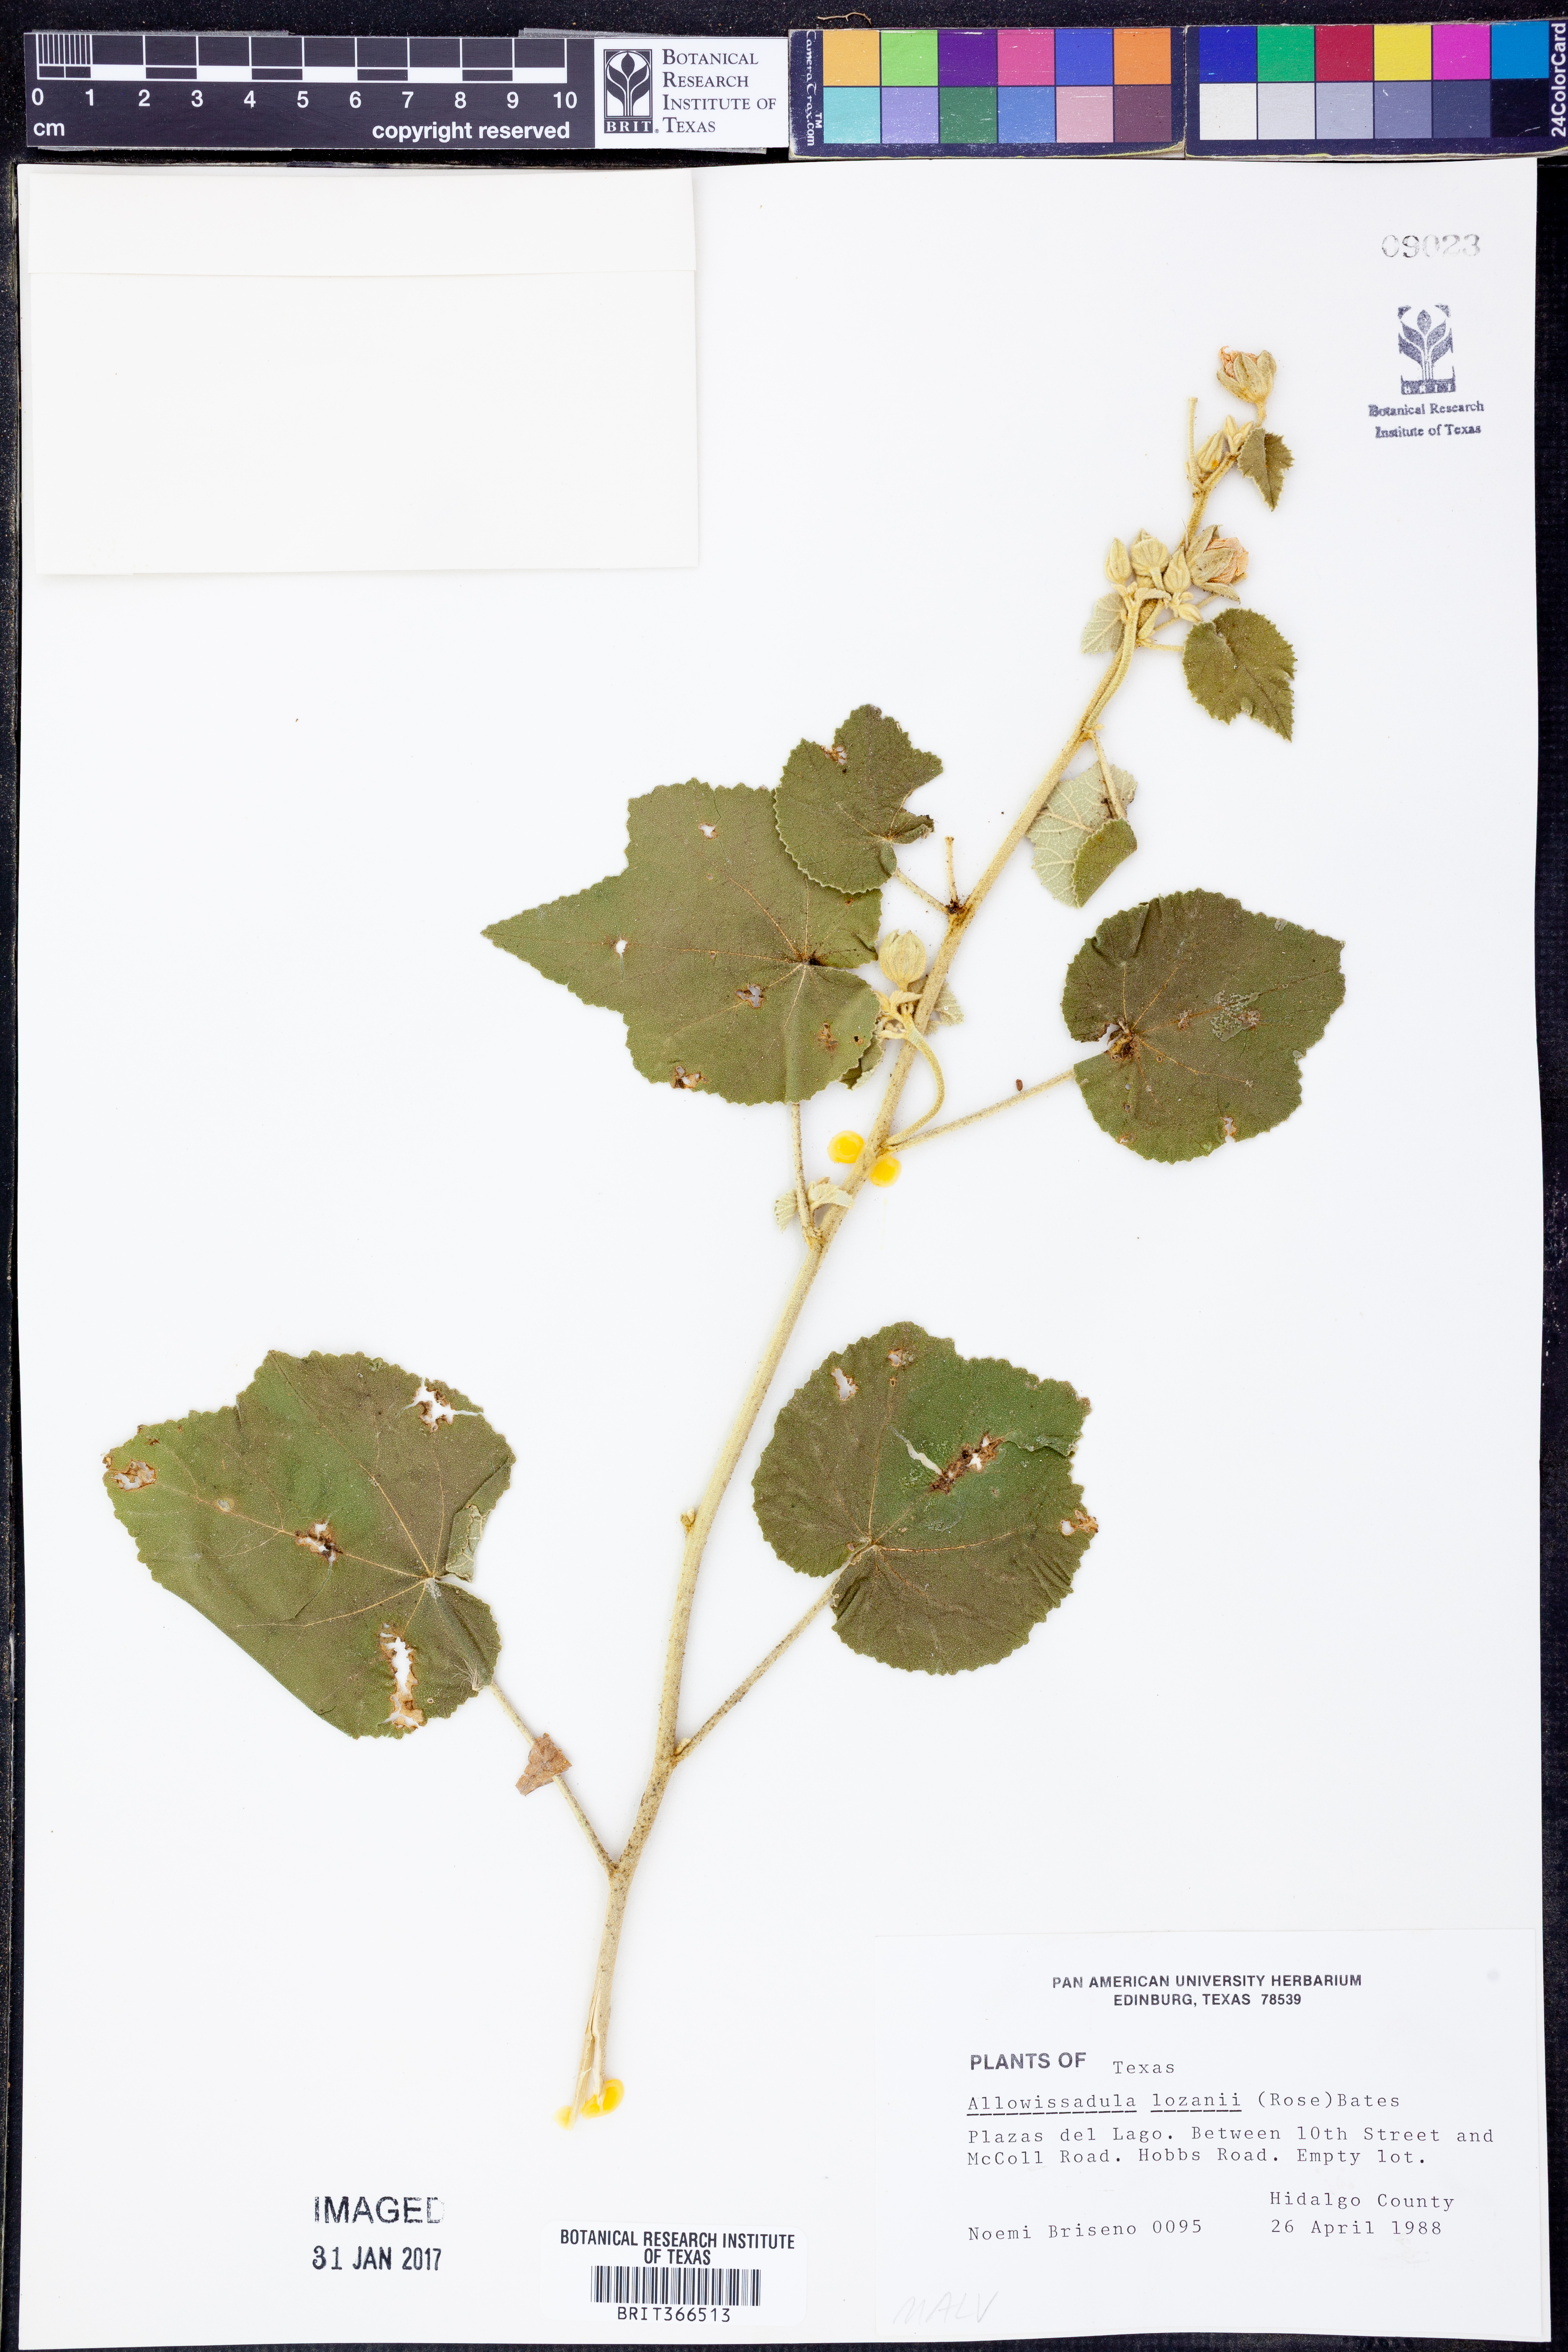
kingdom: Plantae
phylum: Tracheophyta
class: Magnoliopsida
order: Malvales
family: Malvaceae
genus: Allowissadula
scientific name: Allowissadula lozanii
